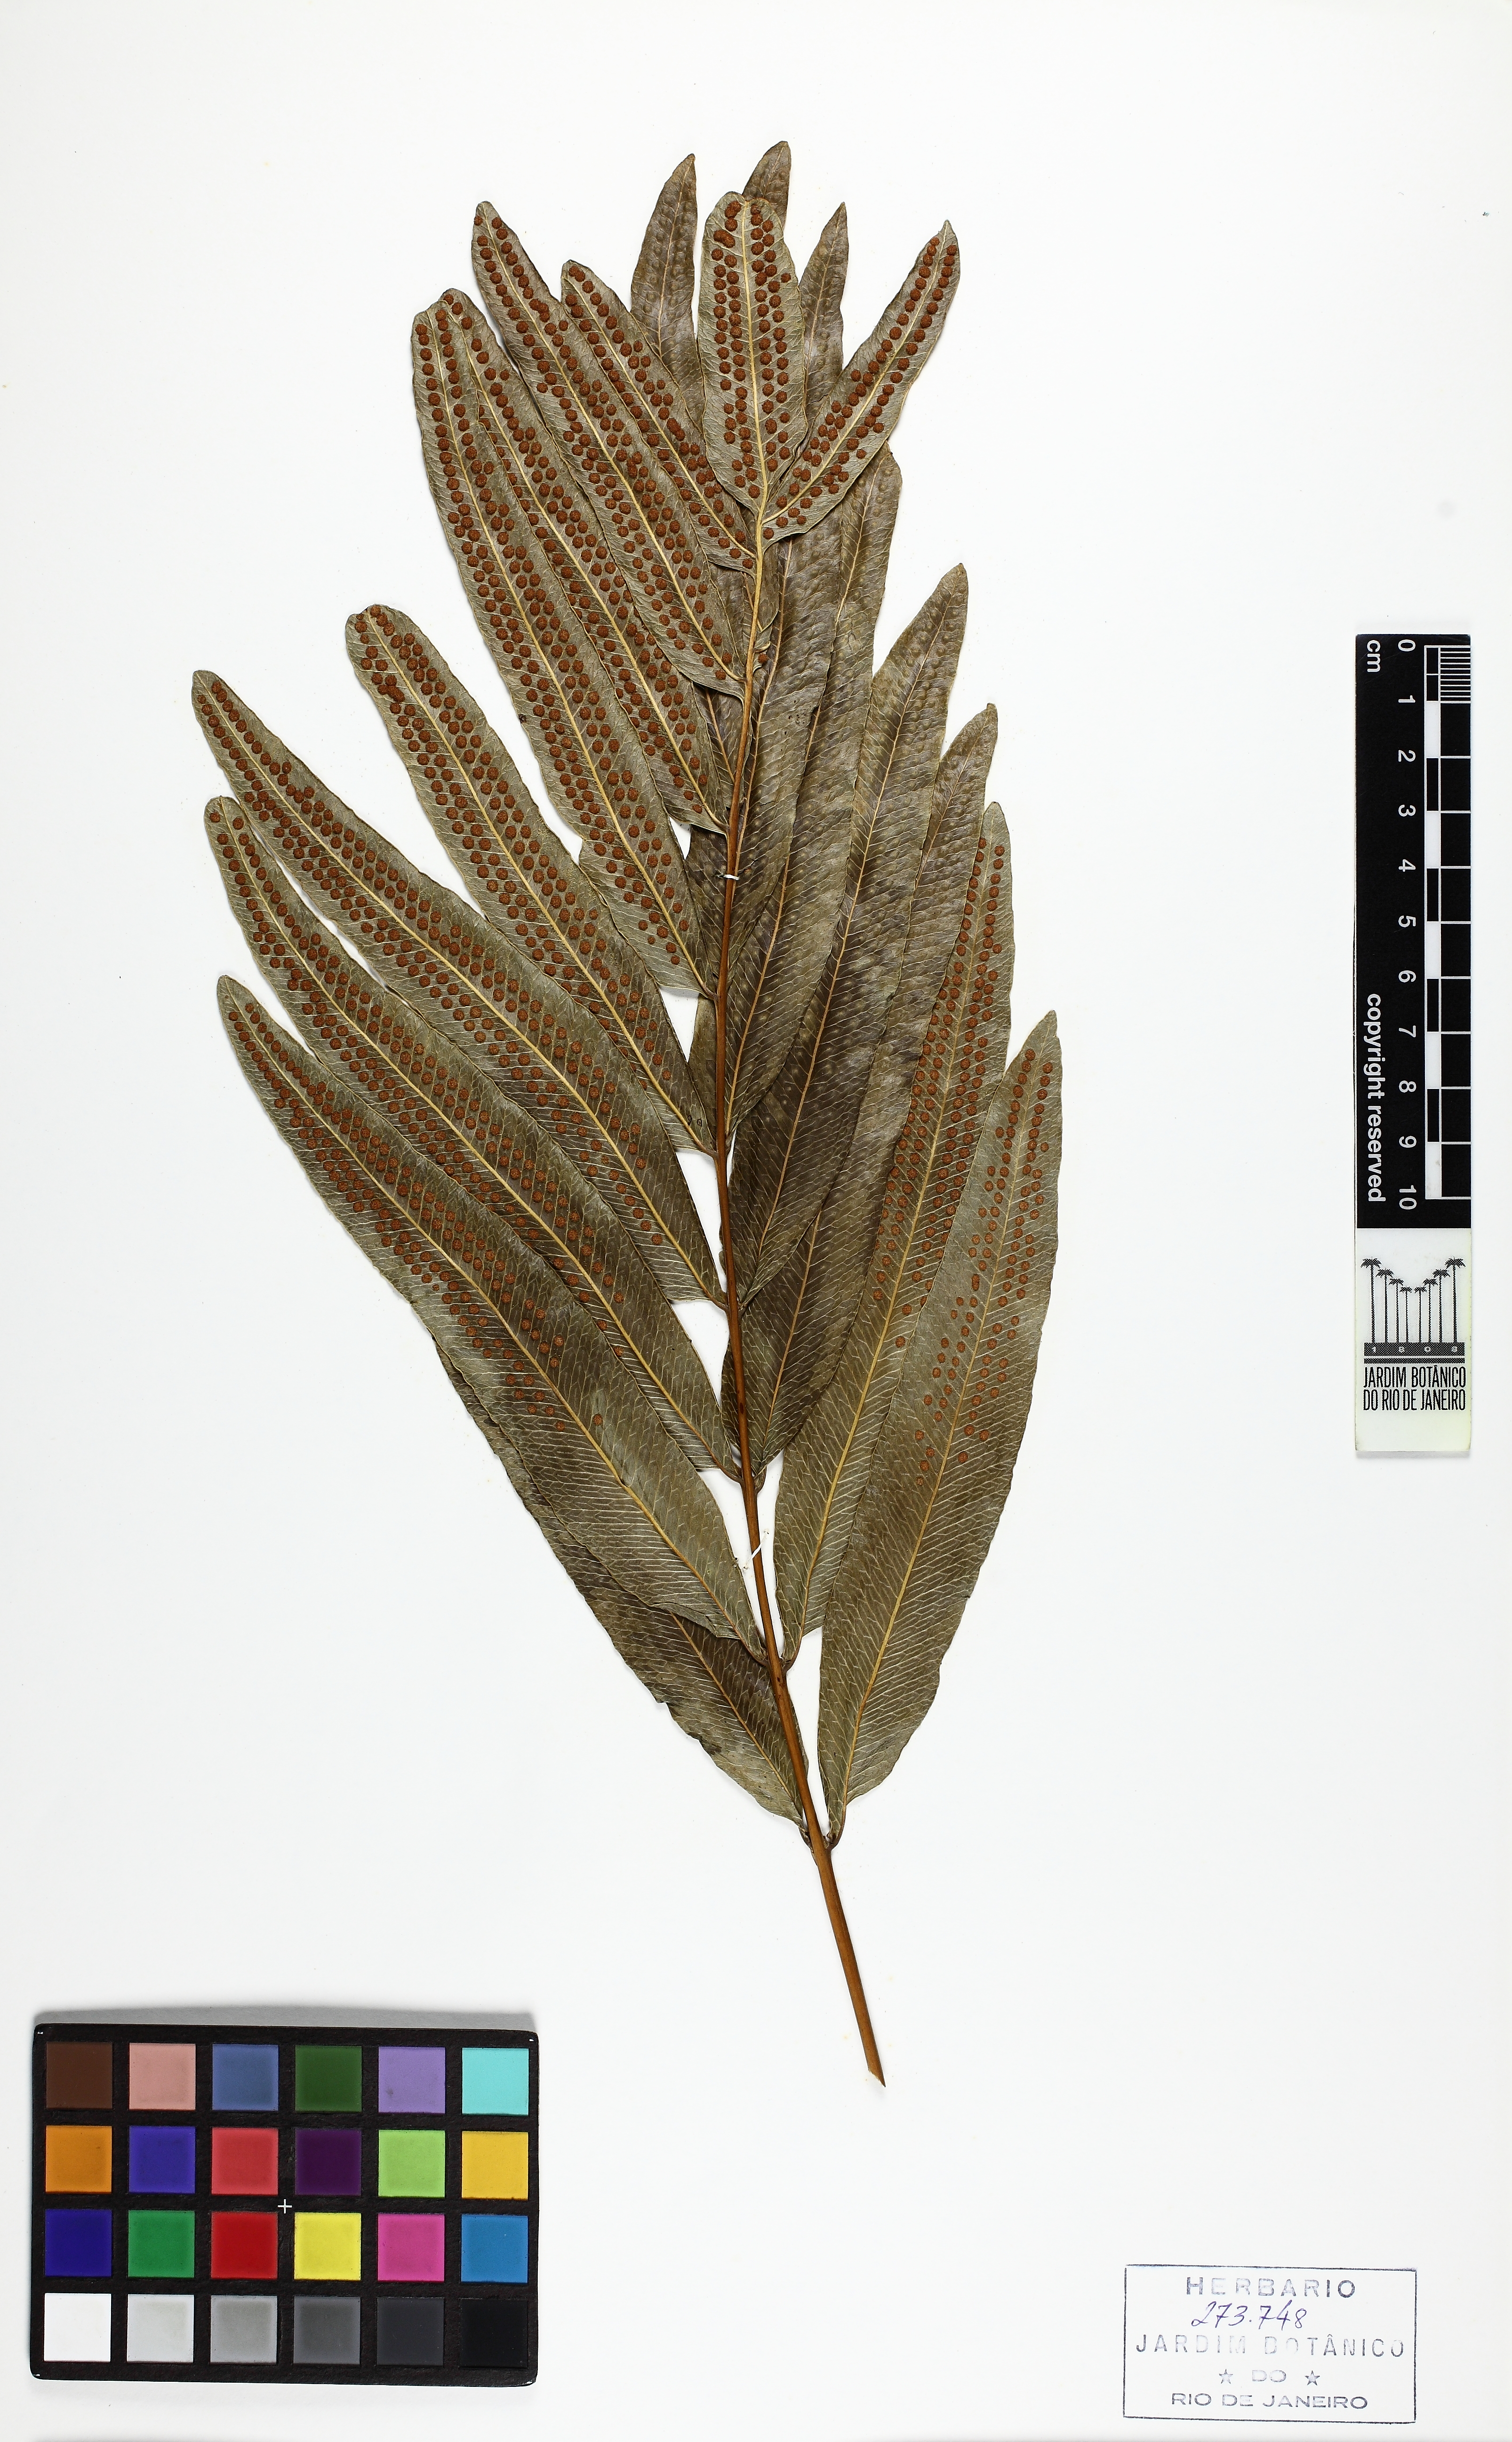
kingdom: Plantae
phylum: Tracheophyta
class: Polypodiopsida
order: Polypodiales
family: Polypodiaceae
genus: Serpocaulon
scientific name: Serpocaulon triseriale
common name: Angle-vein fern
